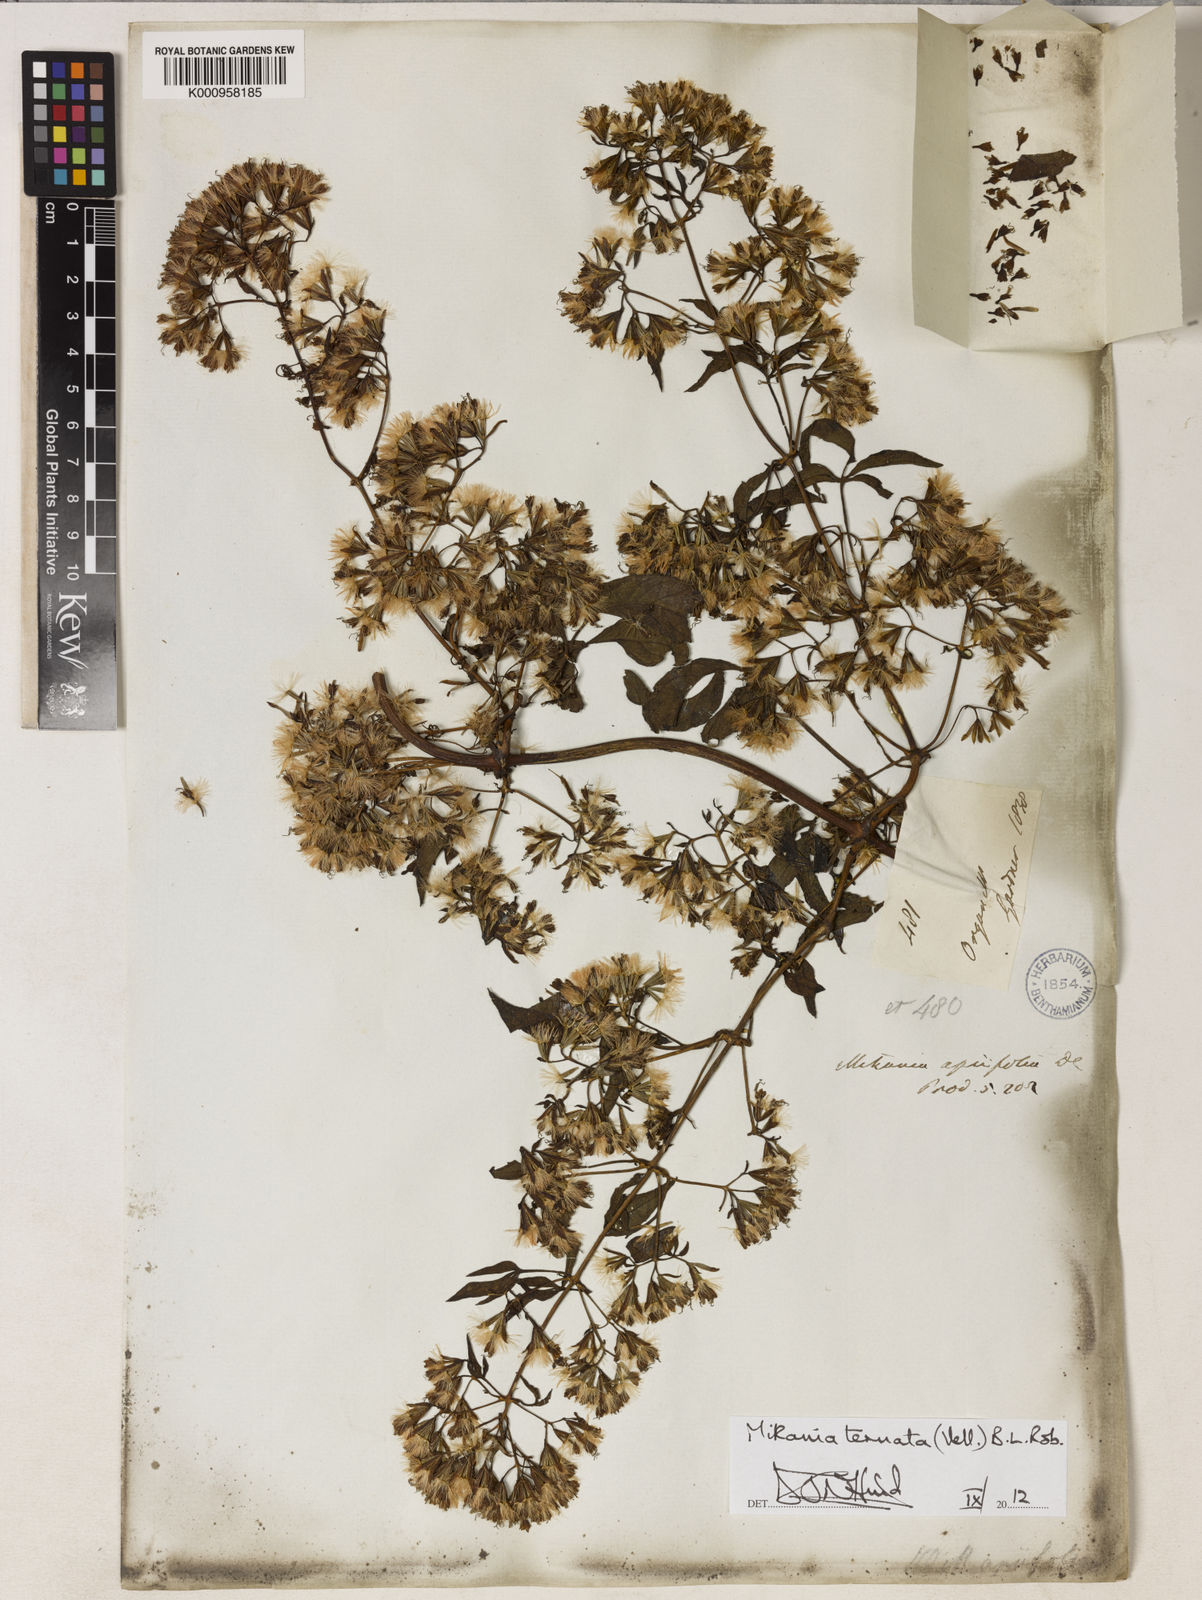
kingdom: Plantae
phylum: Tracheophyta
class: Magnoliopsida
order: Asterales
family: Asteraceae
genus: Mikania
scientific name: Mikania ternata
